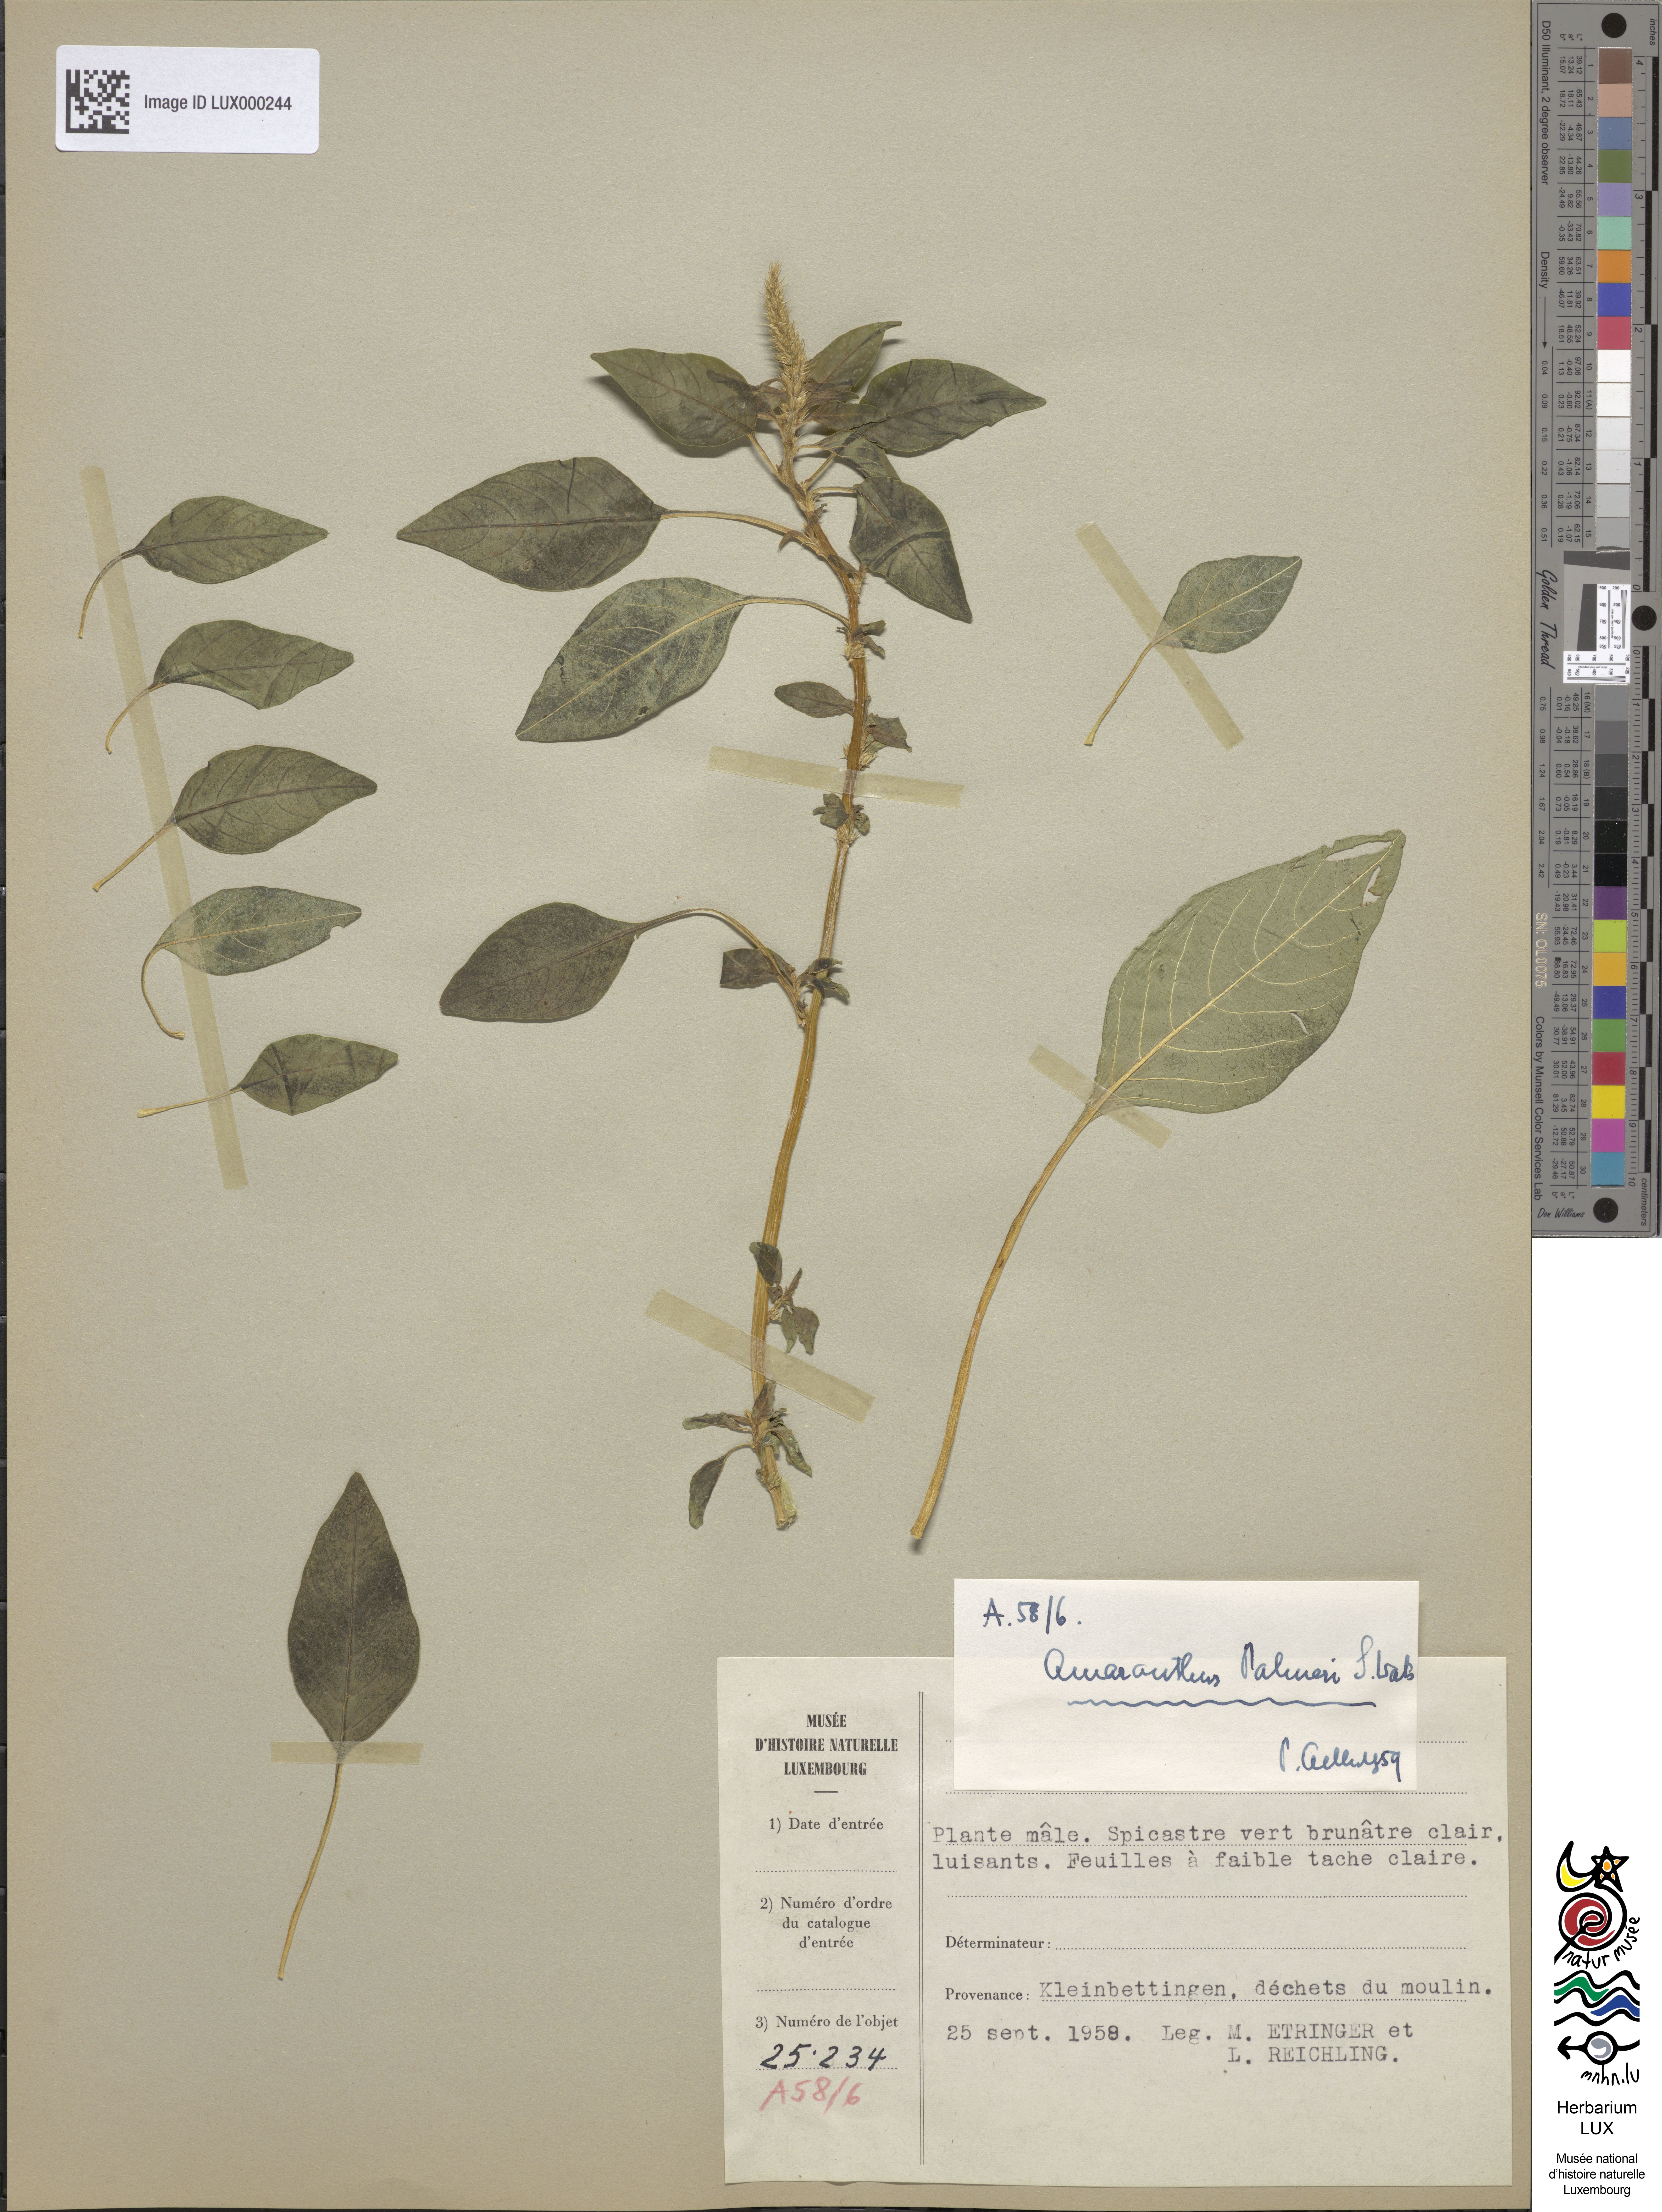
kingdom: Plantae
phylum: Tracheophyta
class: Magnoliopsida
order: Caryophyllales
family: Amaranthaceae
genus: Amaranthus
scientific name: Amaranthus palmeri
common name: Dioecious amaranth
